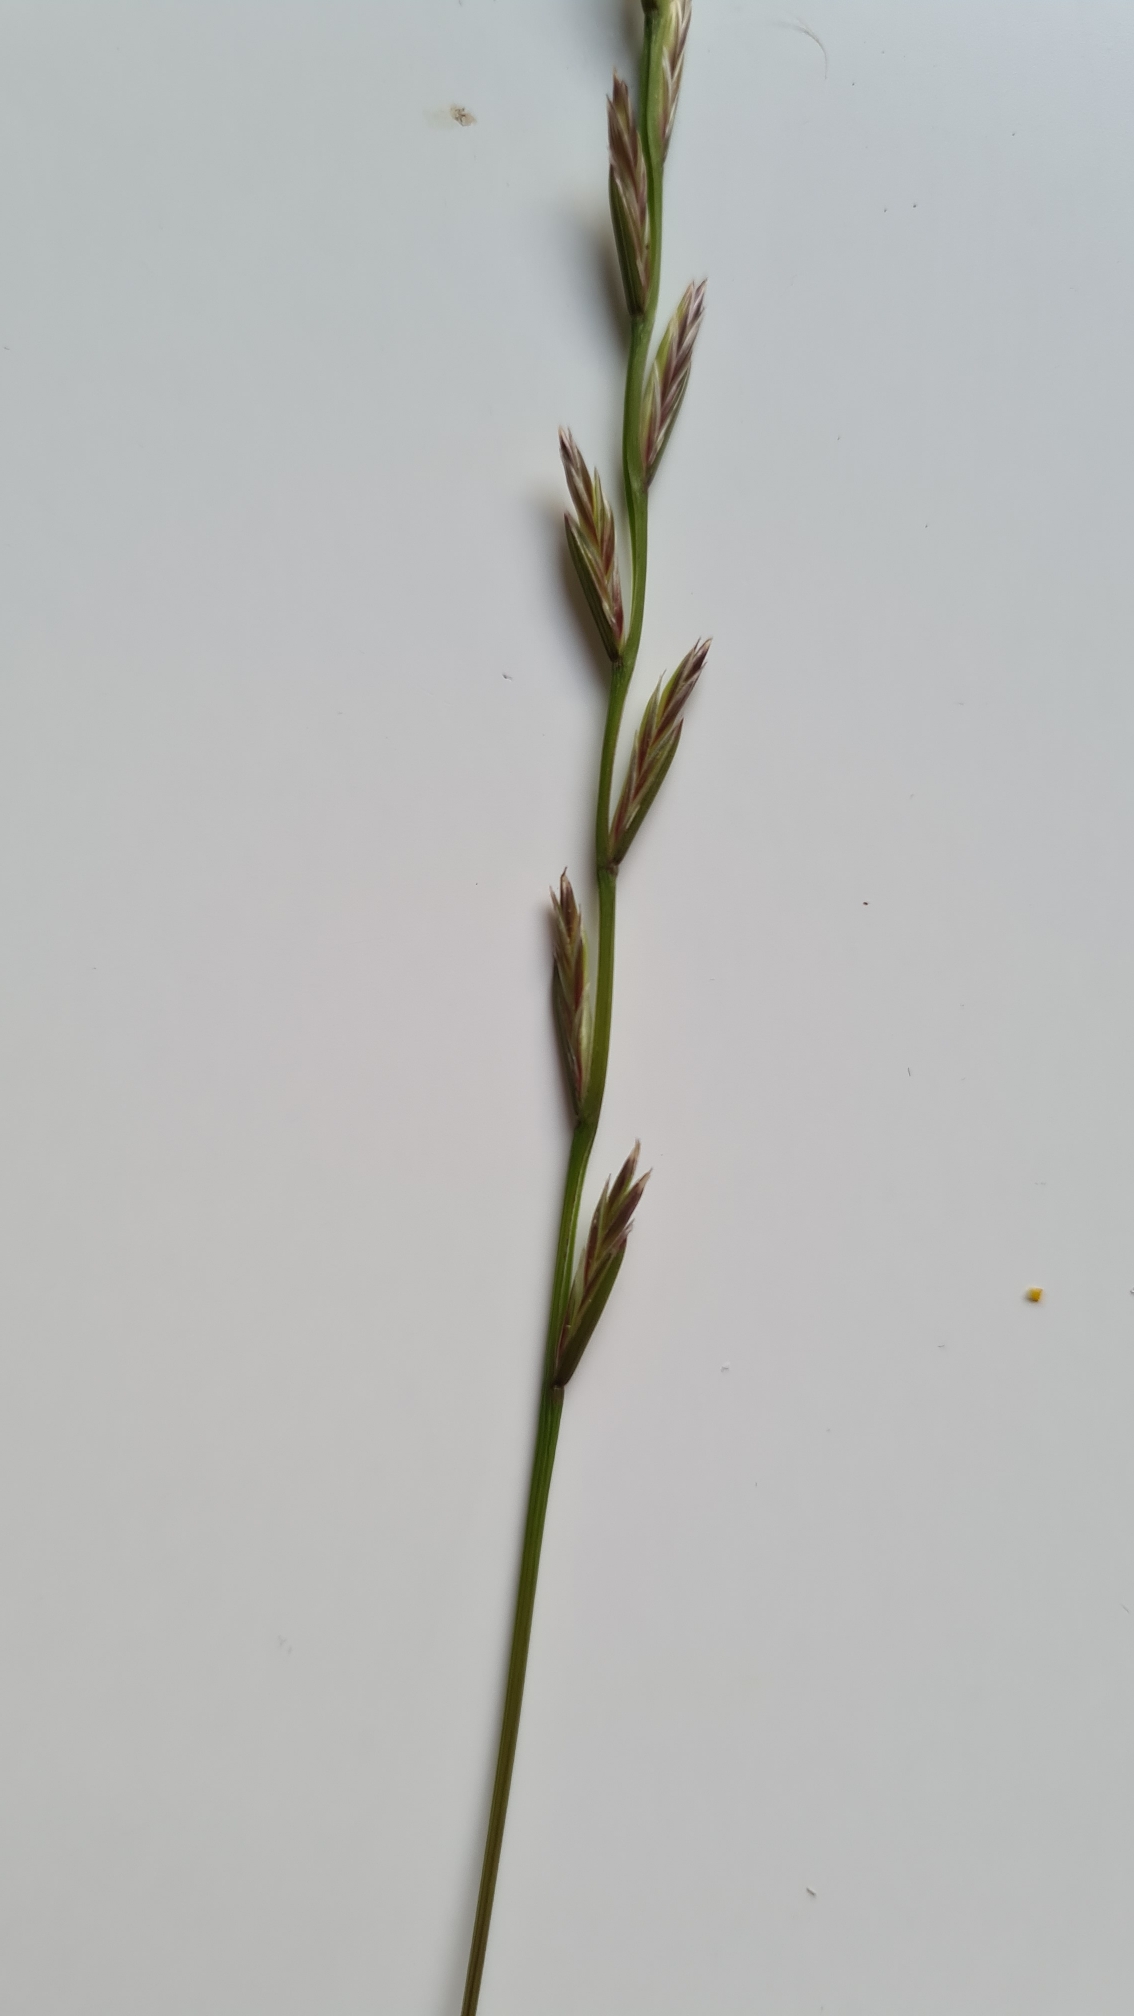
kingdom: Plantae
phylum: Tracheophyta
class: Liliopsida
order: Poales
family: Poaceae
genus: Lolium
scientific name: Lolium perenne
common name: Almindelig rajgræs
